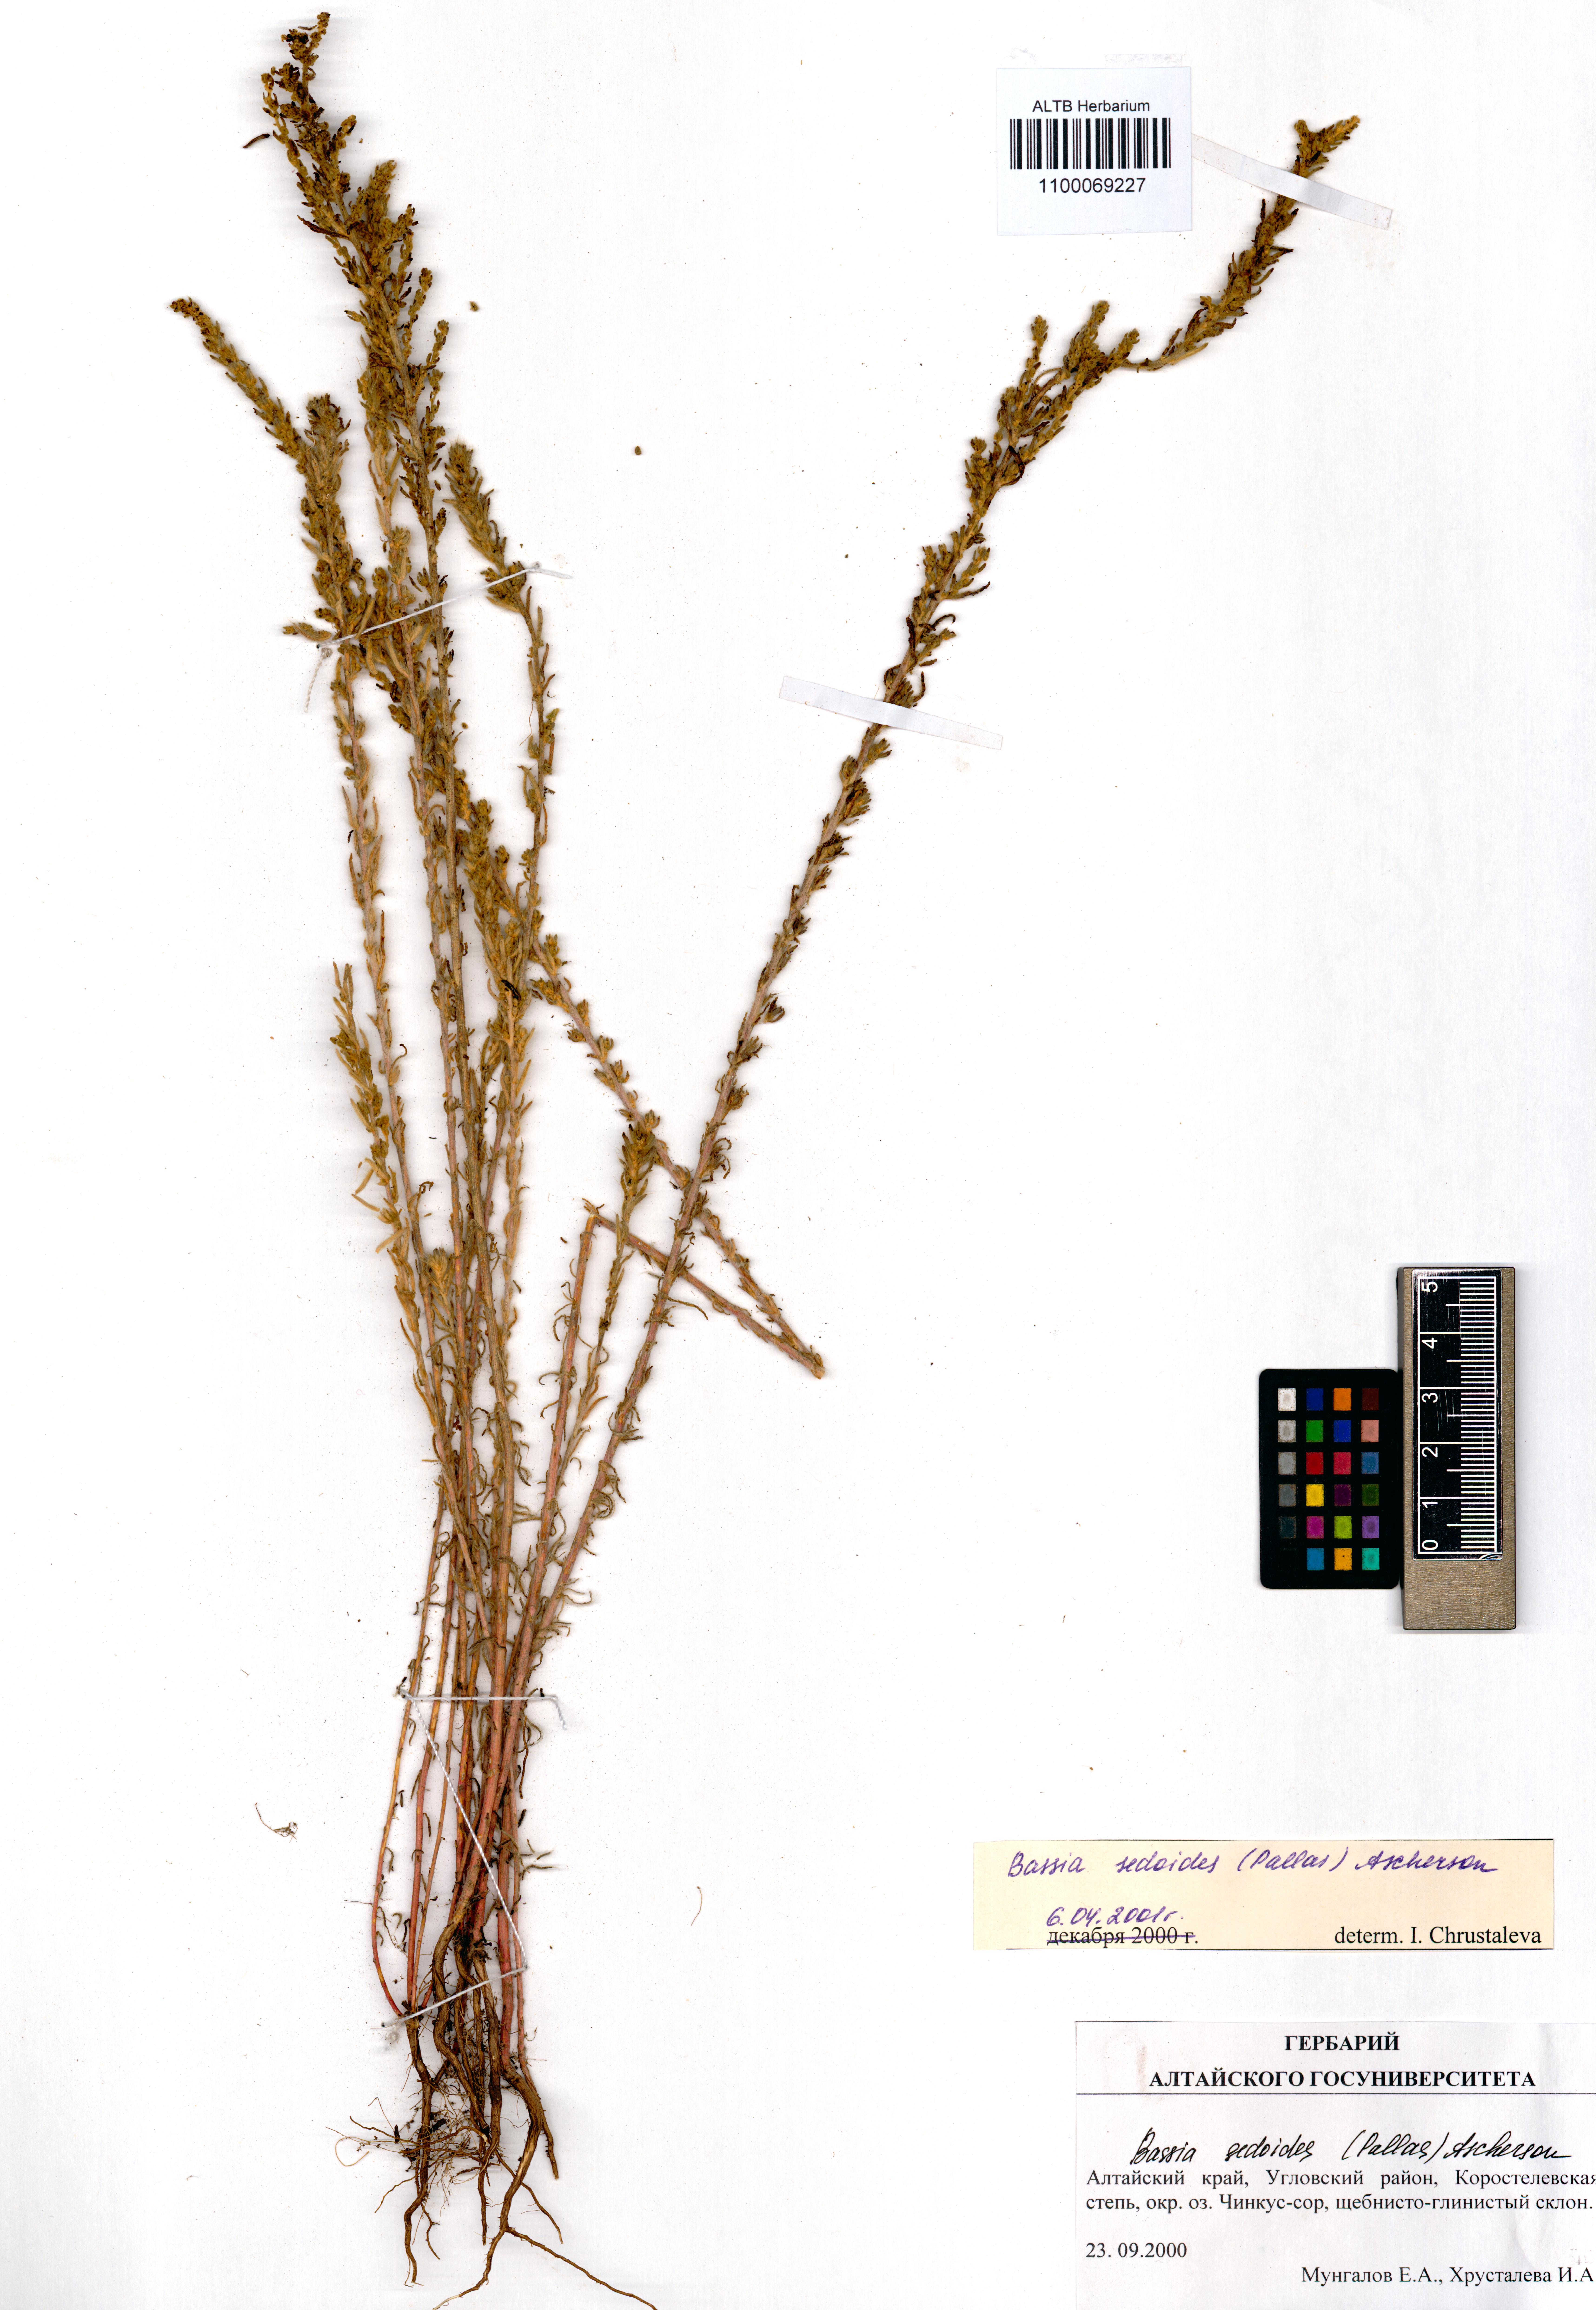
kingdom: Plantae
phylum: Tracheophyta
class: Magnoliopsida
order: Caryophyllales
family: Amaranthaceae
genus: Sedobassia
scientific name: Sedobassia sedoides
